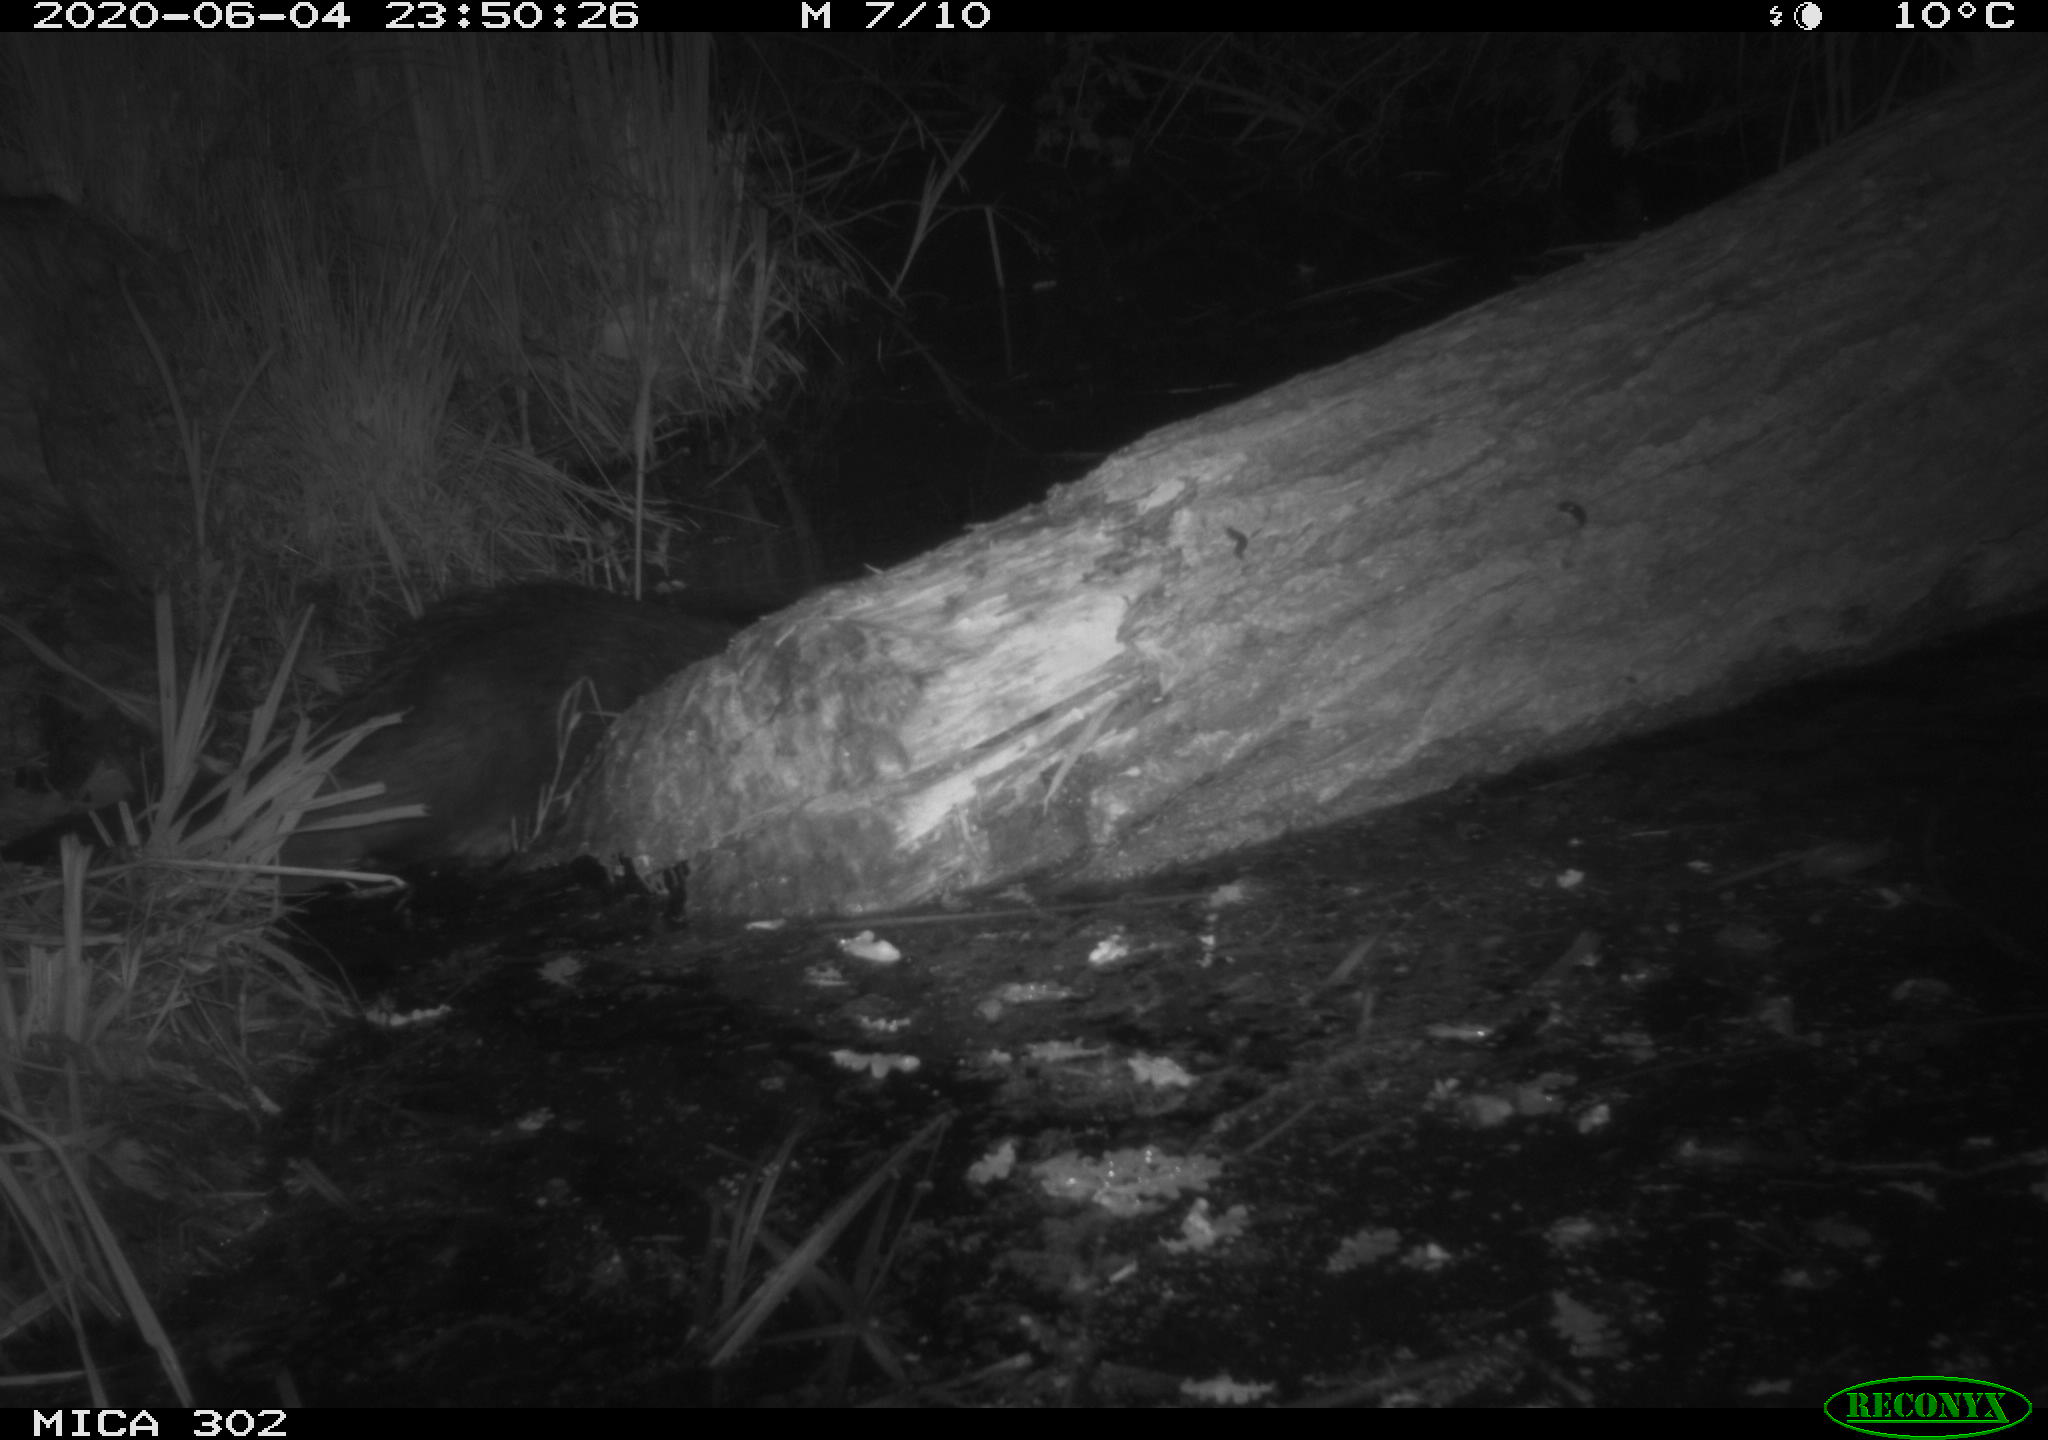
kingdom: Animalia
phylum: Chordata
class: Mammalia
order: Rodentia
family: Castoridae
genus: Castor
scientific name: Castor fiber
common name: Eurasian beaver
